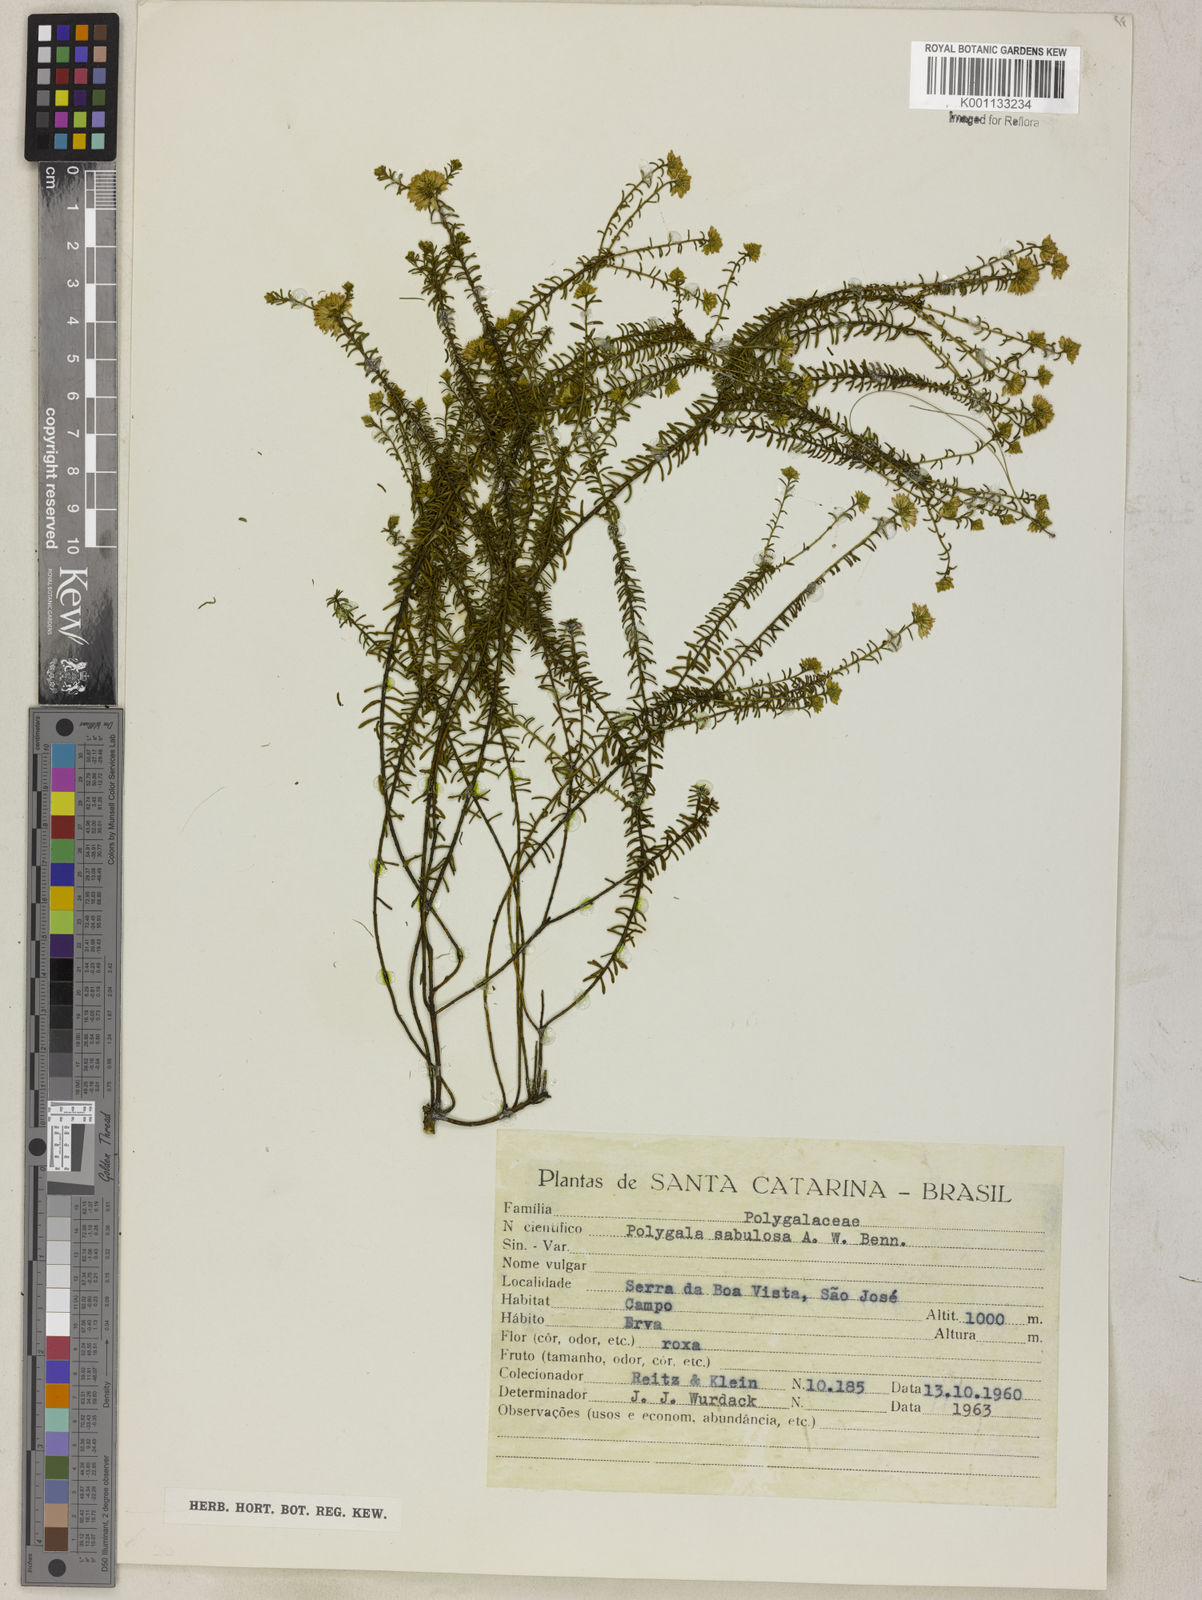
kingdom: Plantae
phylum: Tracheophyta
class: Magnoliopsida
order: Fabales
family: Polygalaceae
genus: Polygala
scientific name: Polygala sellowiana
